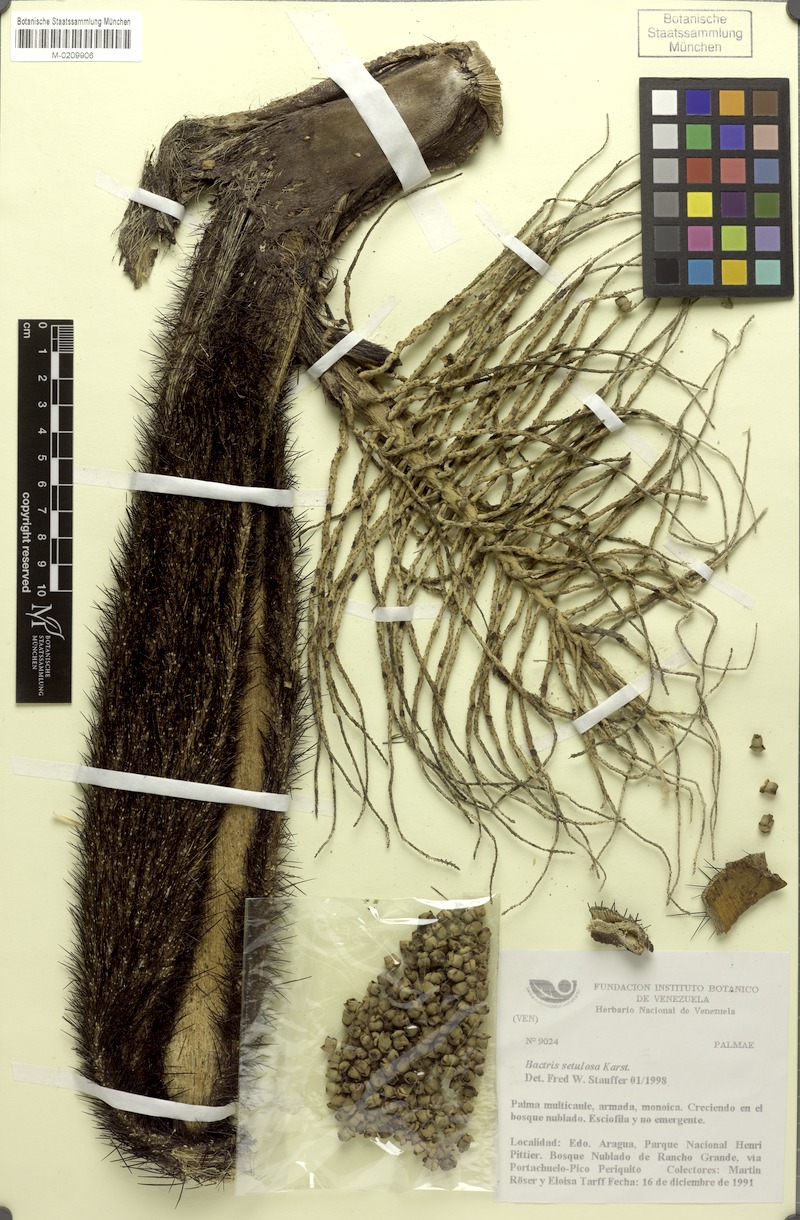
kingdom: Plantae
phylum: Tracheophyta
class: Liliopsida
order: Arecales
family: Arecaceae
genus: Bactris
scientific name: Bactris setulosa
